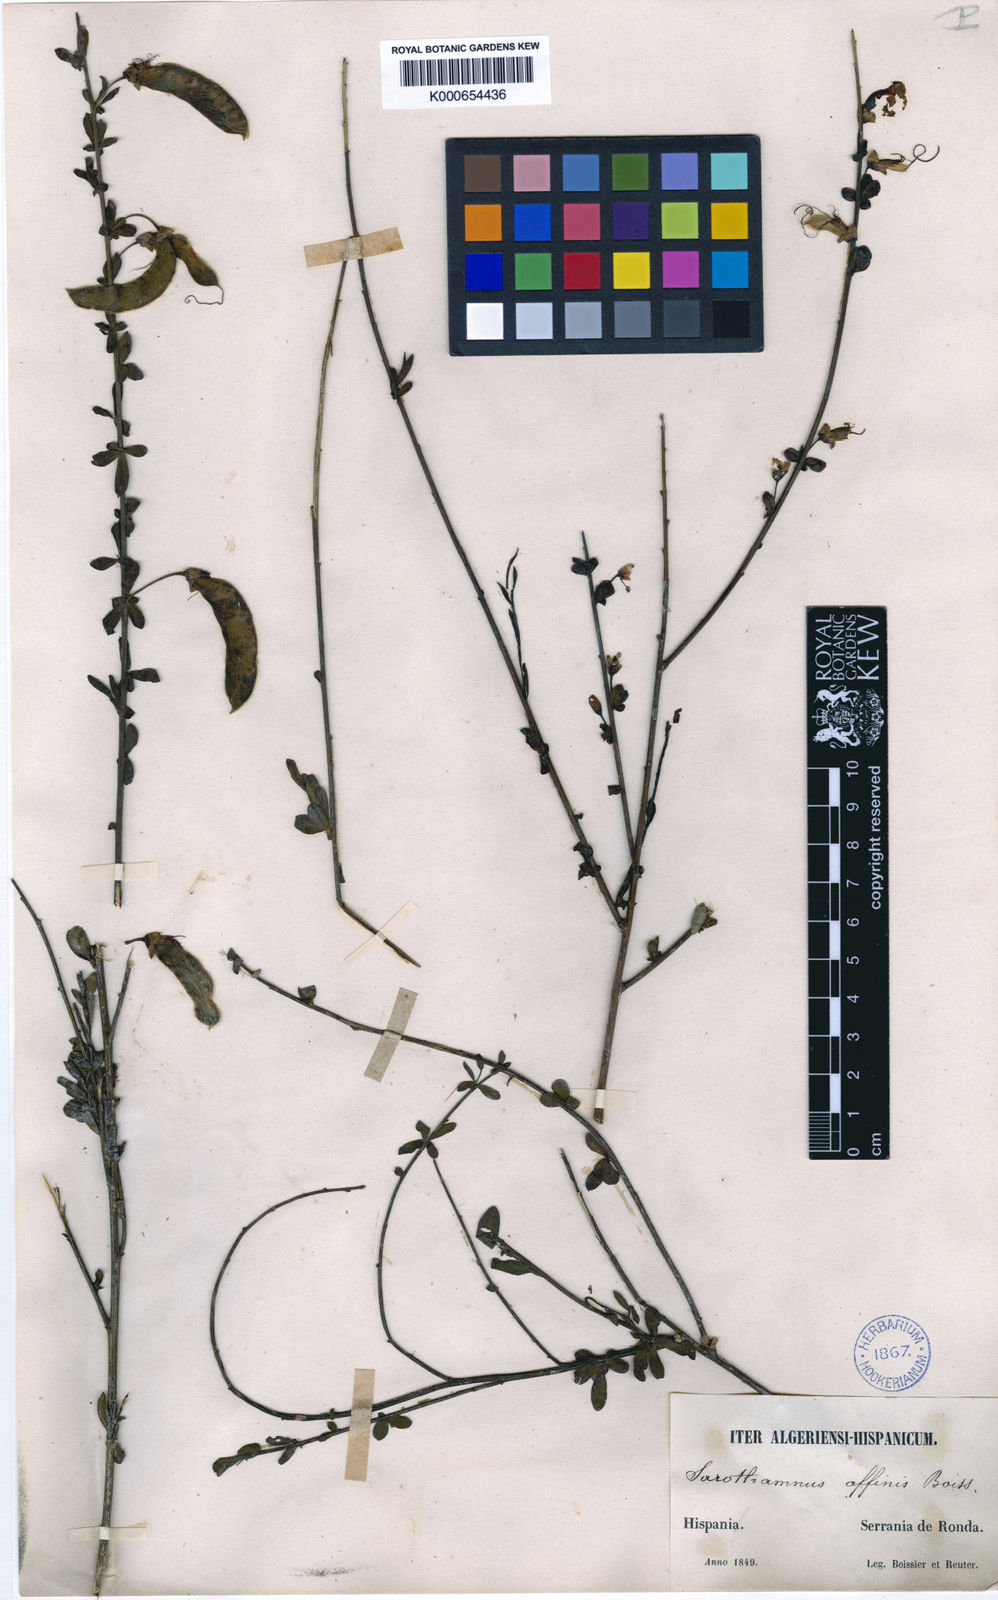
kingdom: Plantae
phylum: Tracheophyta
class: Magnoliopsida
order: Fabales
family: Fabaceae
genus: Cytisus
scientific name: Cytisus grandiflorus
